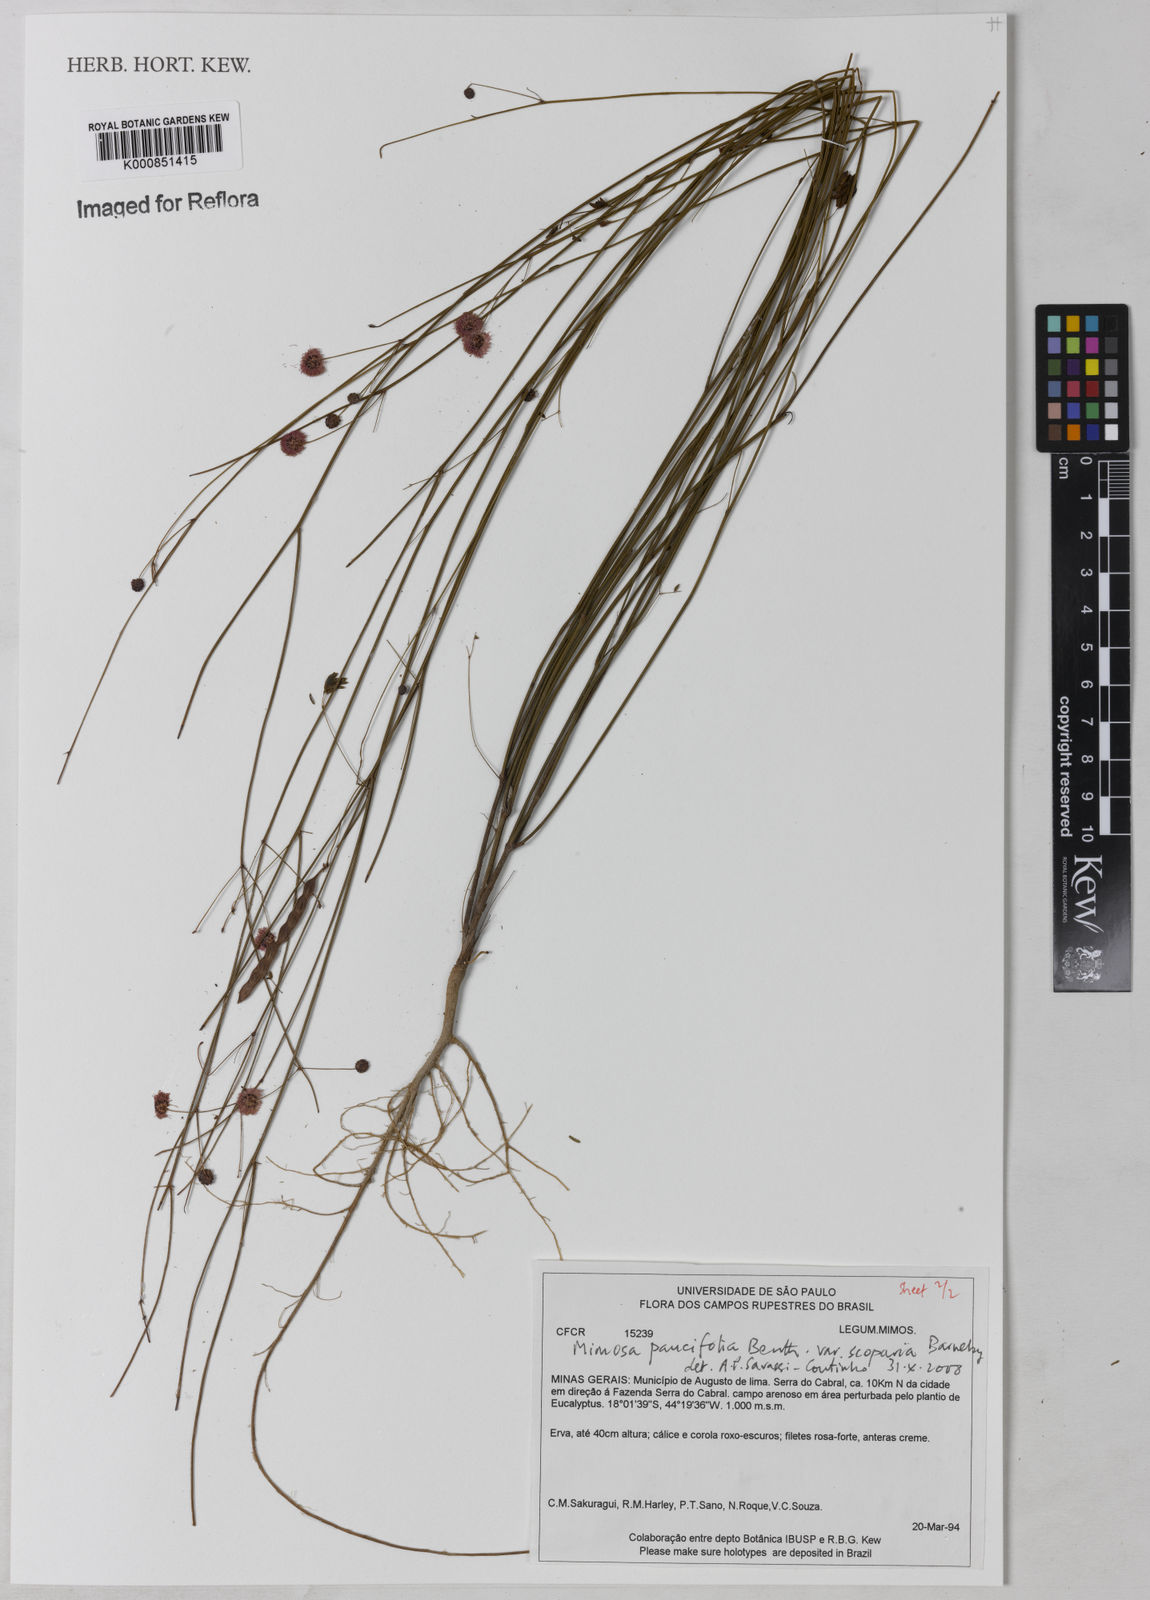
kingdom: Plantae
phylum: Tracheophyta
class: Magnoliopsida
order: Fabales
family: Fabaceae
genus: Mimosa
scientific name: Mimosa paucifolia
